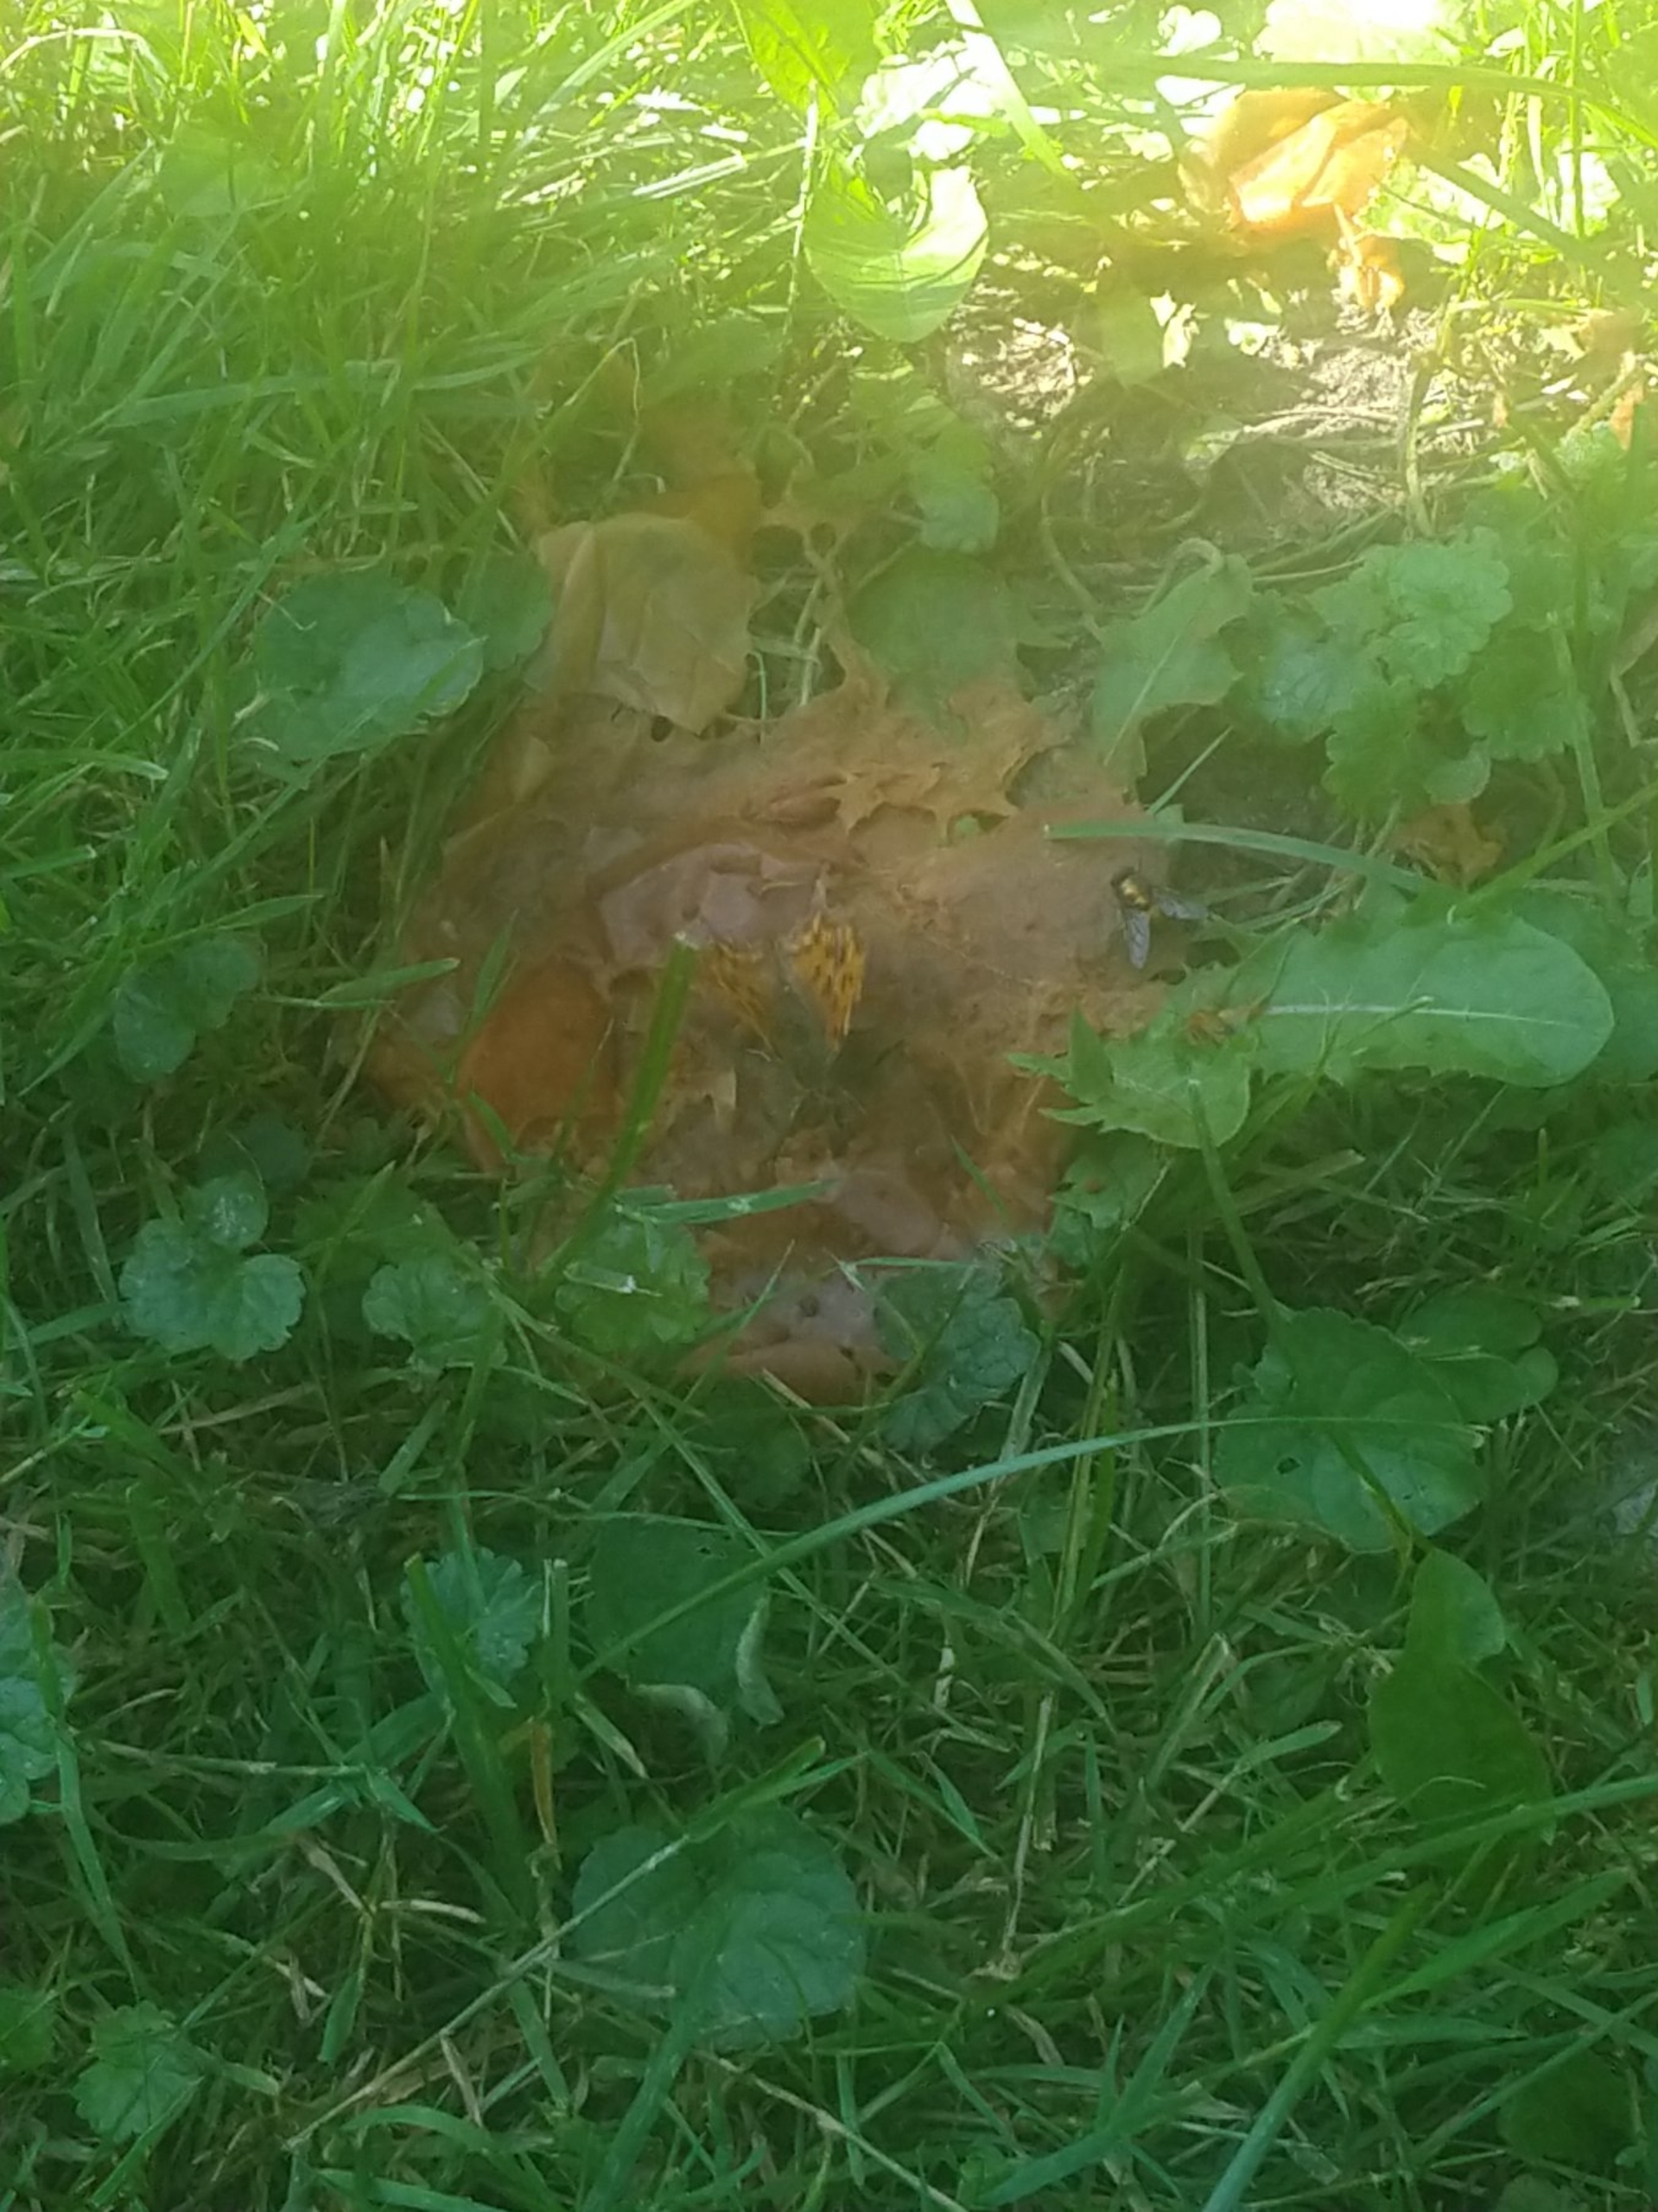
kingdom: Animalia
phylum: Arthropoda
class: Insecta
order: Lepidoptera
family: Nymphalidae
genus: Polygonia
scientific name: Polygonia c-album
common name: Det hvide C
